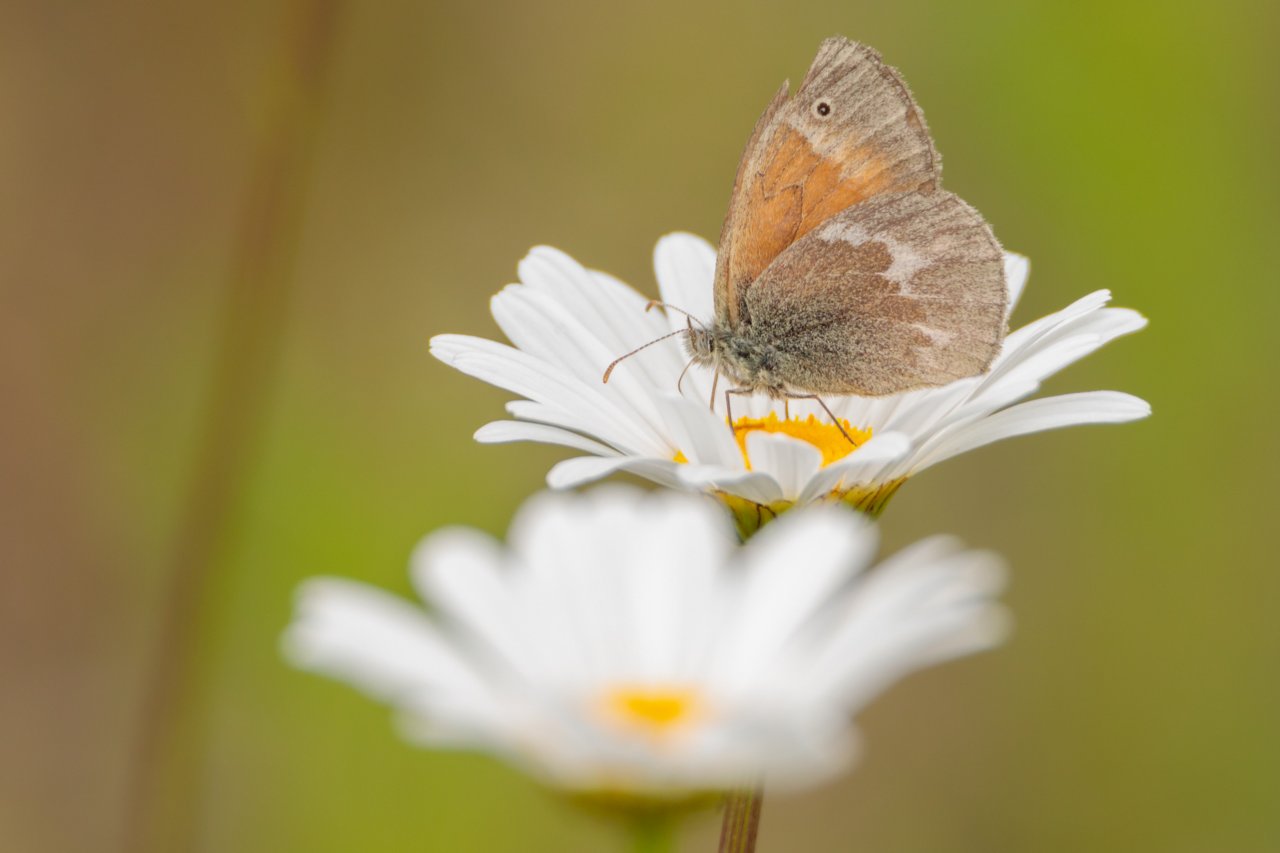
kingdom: Animalia
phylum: Arthropoda
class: Insecta
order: Lepidoptera
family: Nymphalidae
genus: Coenonympha
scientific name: Coenonympha tullia
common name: Large Heath
